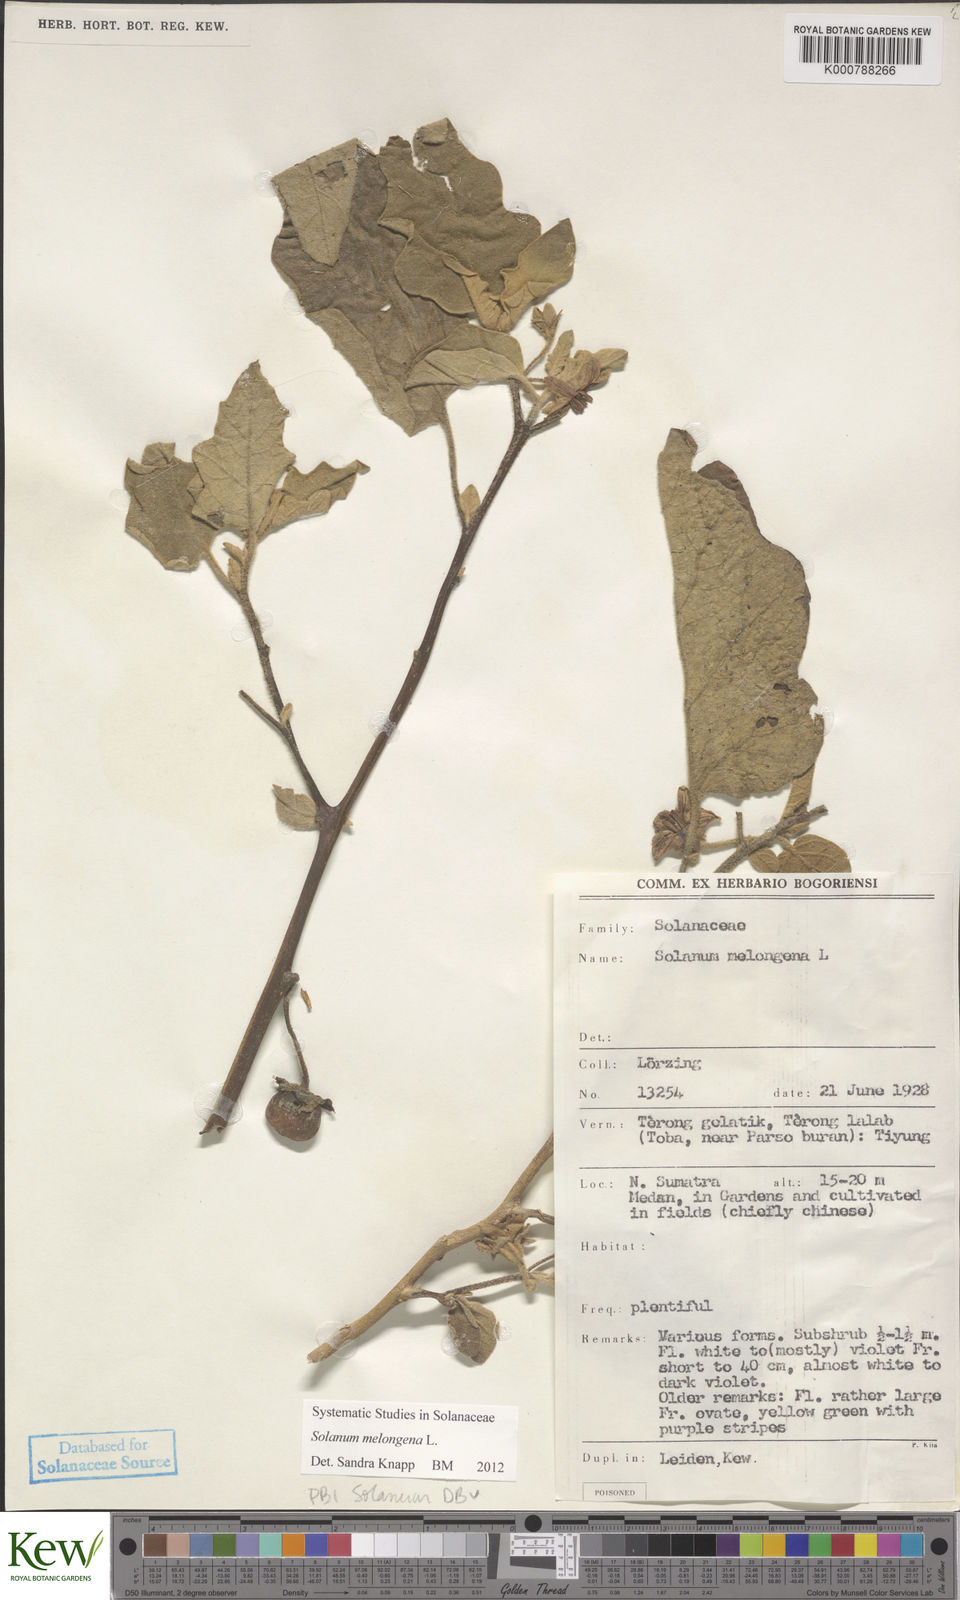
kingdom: Plantae
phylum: Tracheophyta
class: Magnoliopsida
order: Solanales
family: Solanaceae
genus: Solanum
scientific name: Solanum melongena
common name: Eggplant
